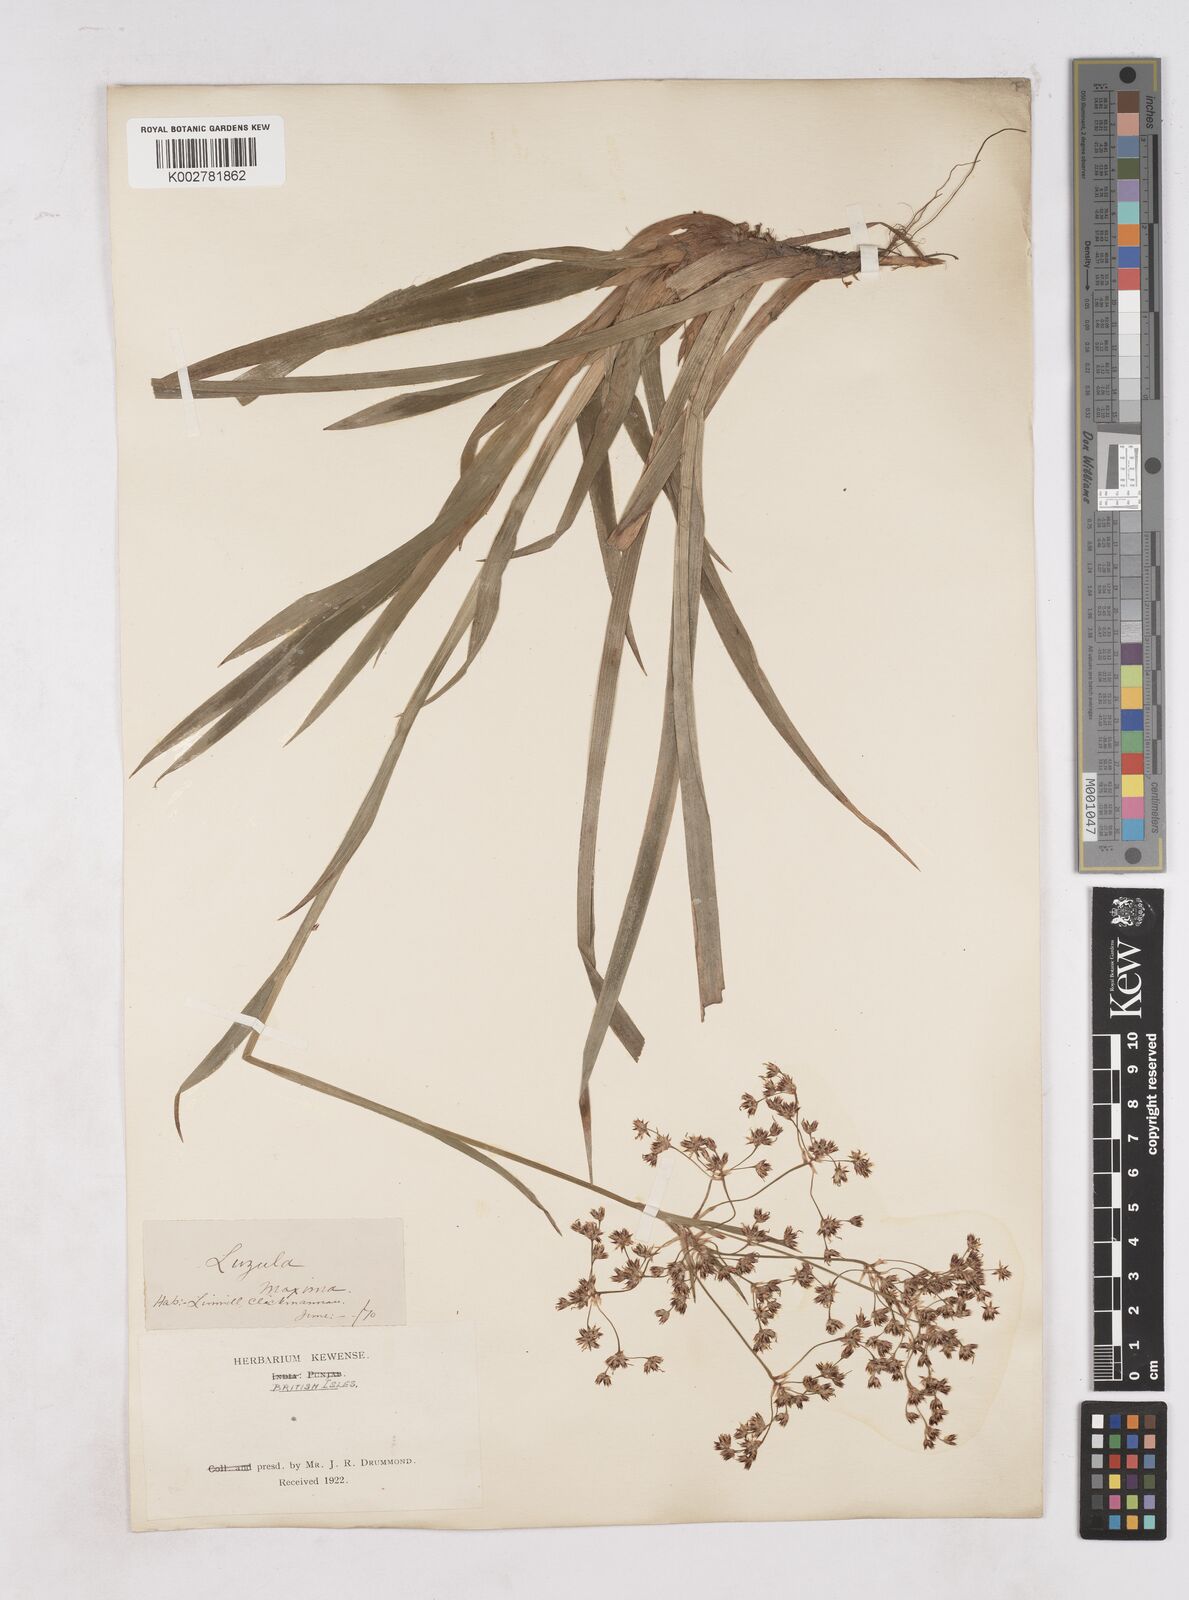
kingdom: Plantae
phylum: Tracheophyta
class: Liliopsida
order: Poales
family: Juncaceae
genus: Luzula
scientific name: Luzula sylvatica
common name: Great wood-rush
